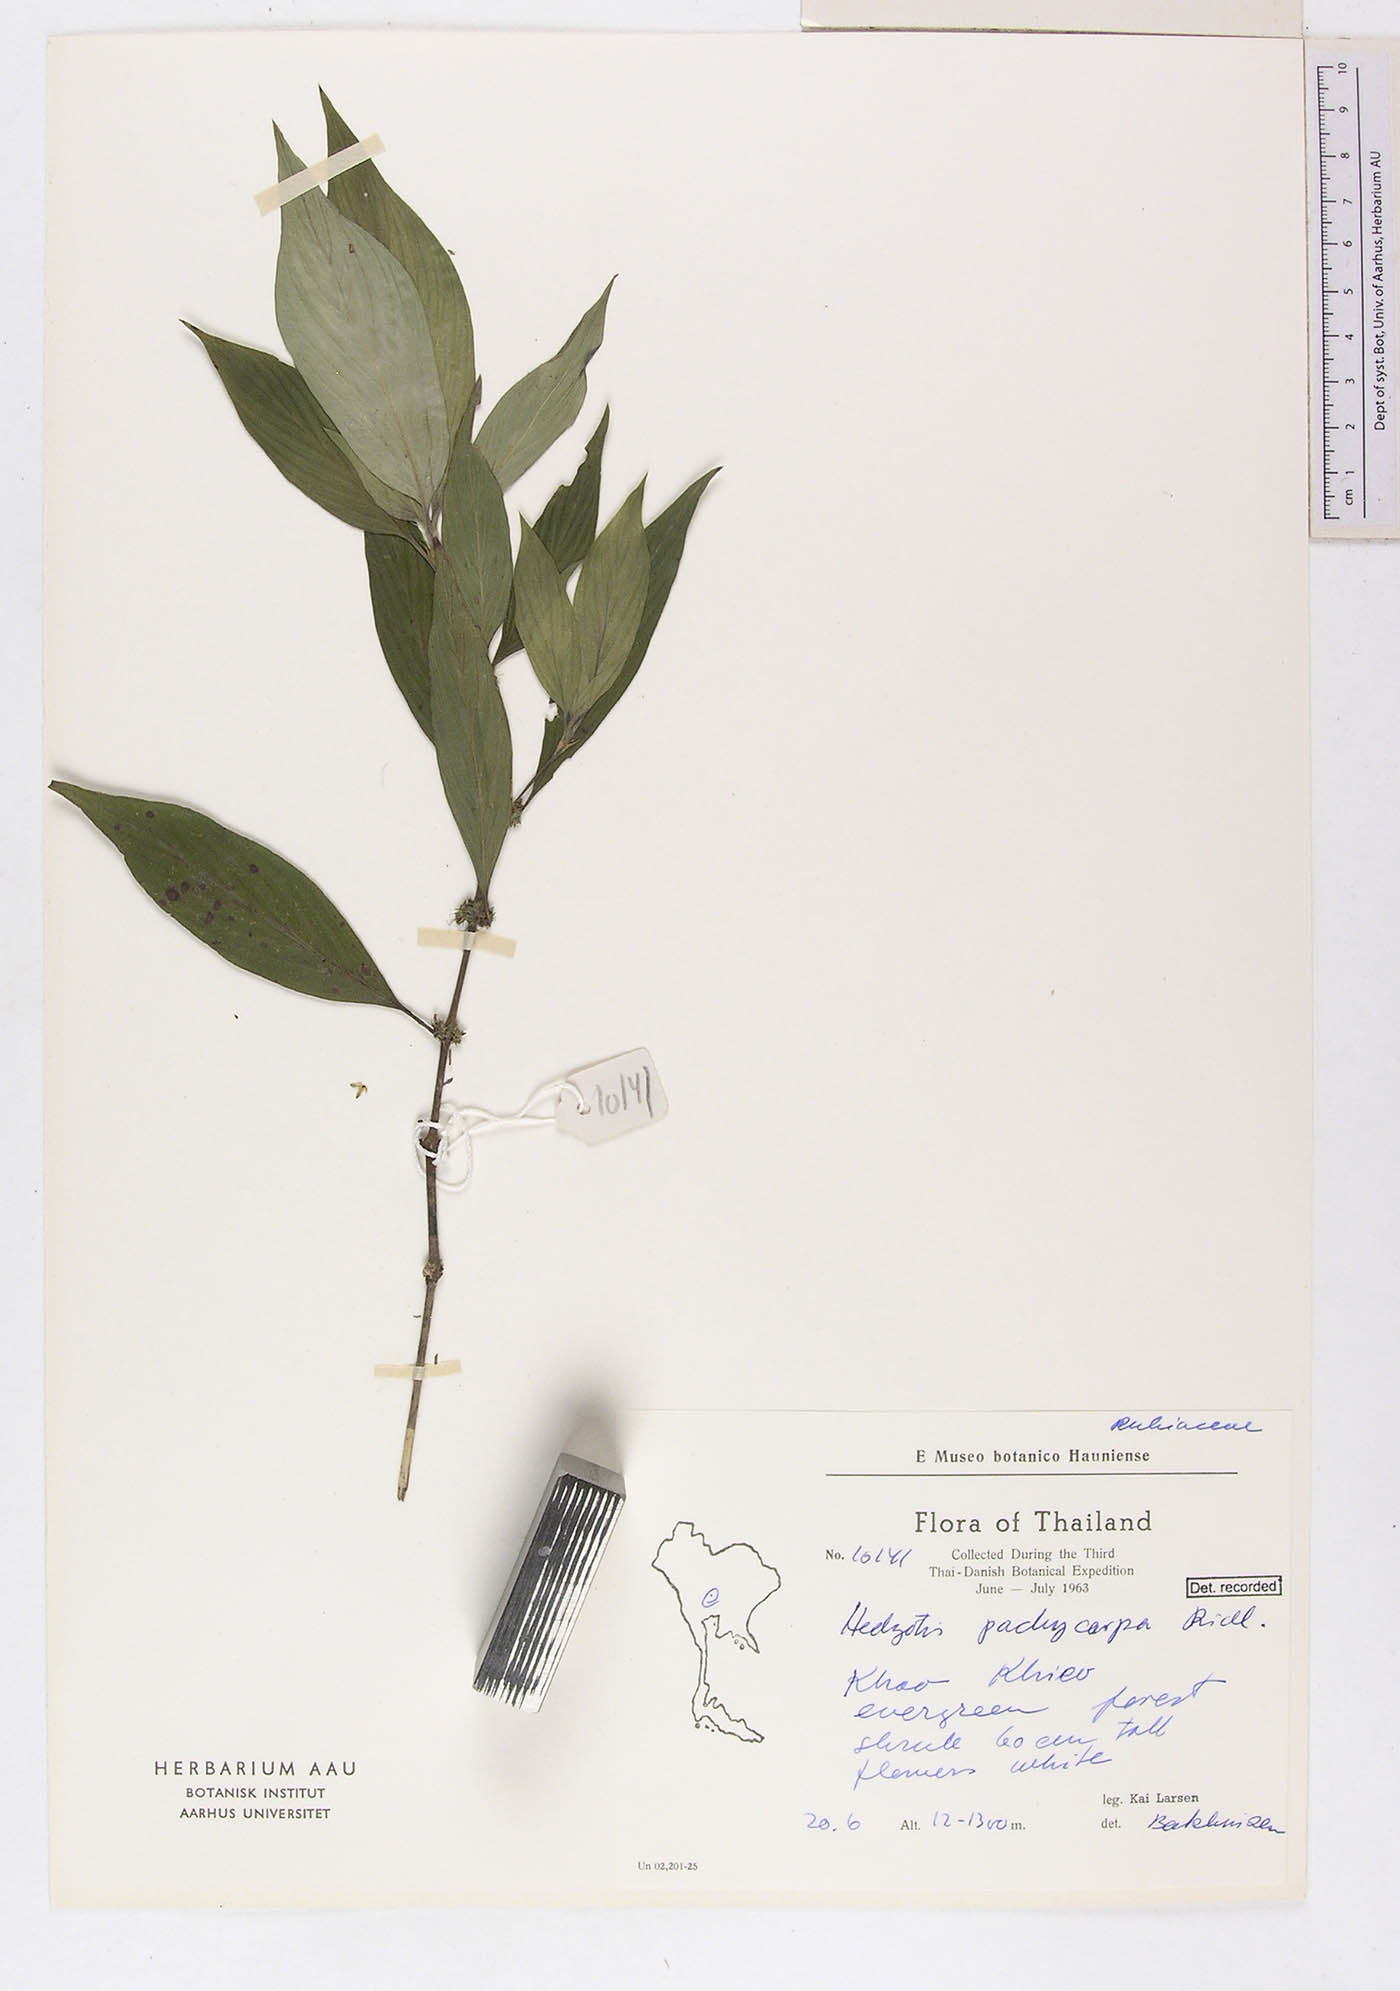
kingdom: Plantae
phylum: Tracheophyta
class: Magnoliopsida
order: Gentianales
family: Rubiaceae
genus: Exallage
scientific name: Exallage pachycarpa
